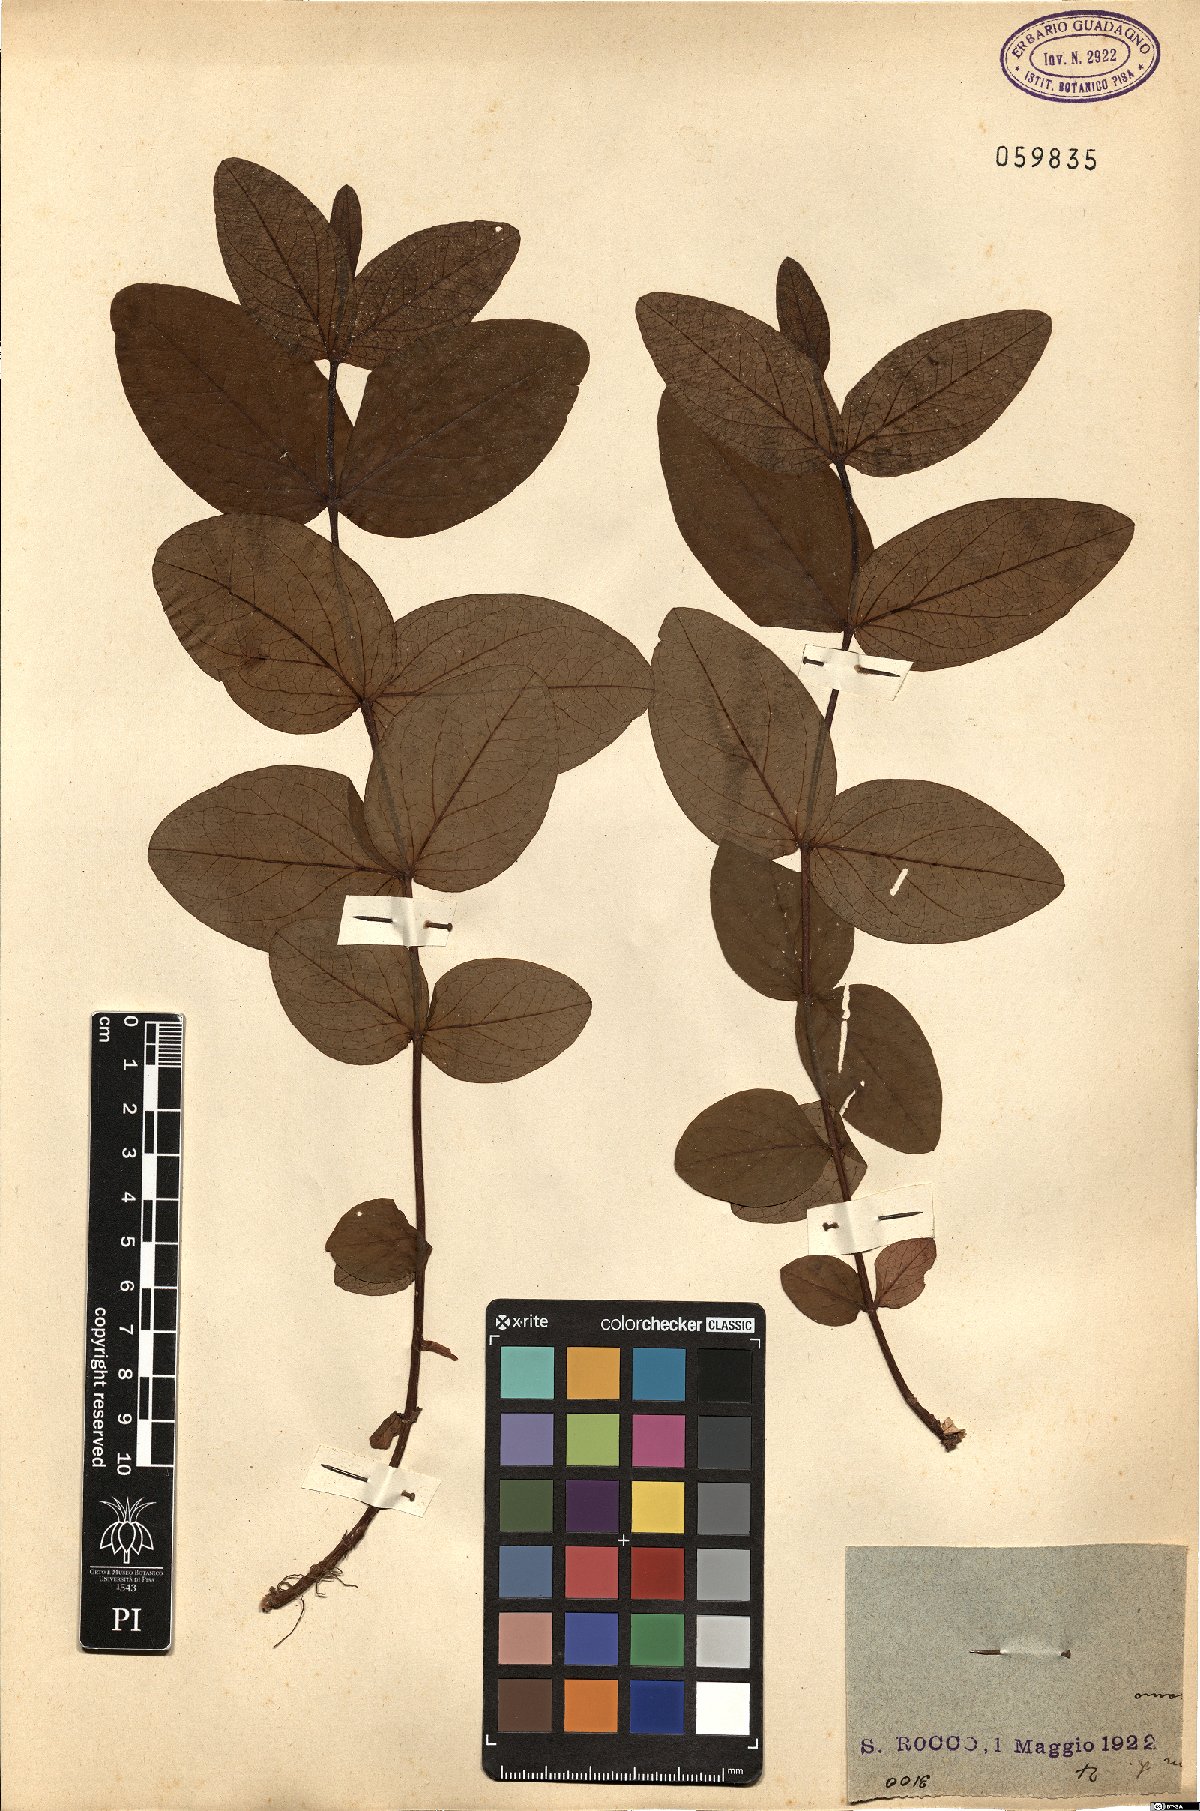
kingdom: Plantae
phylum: Tracheophyta
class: Magnoliopsida
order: Malpighiales
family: Hypericaceae
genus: Hypericum
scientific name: Hypericum hircinum
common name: Stinking tutsan
